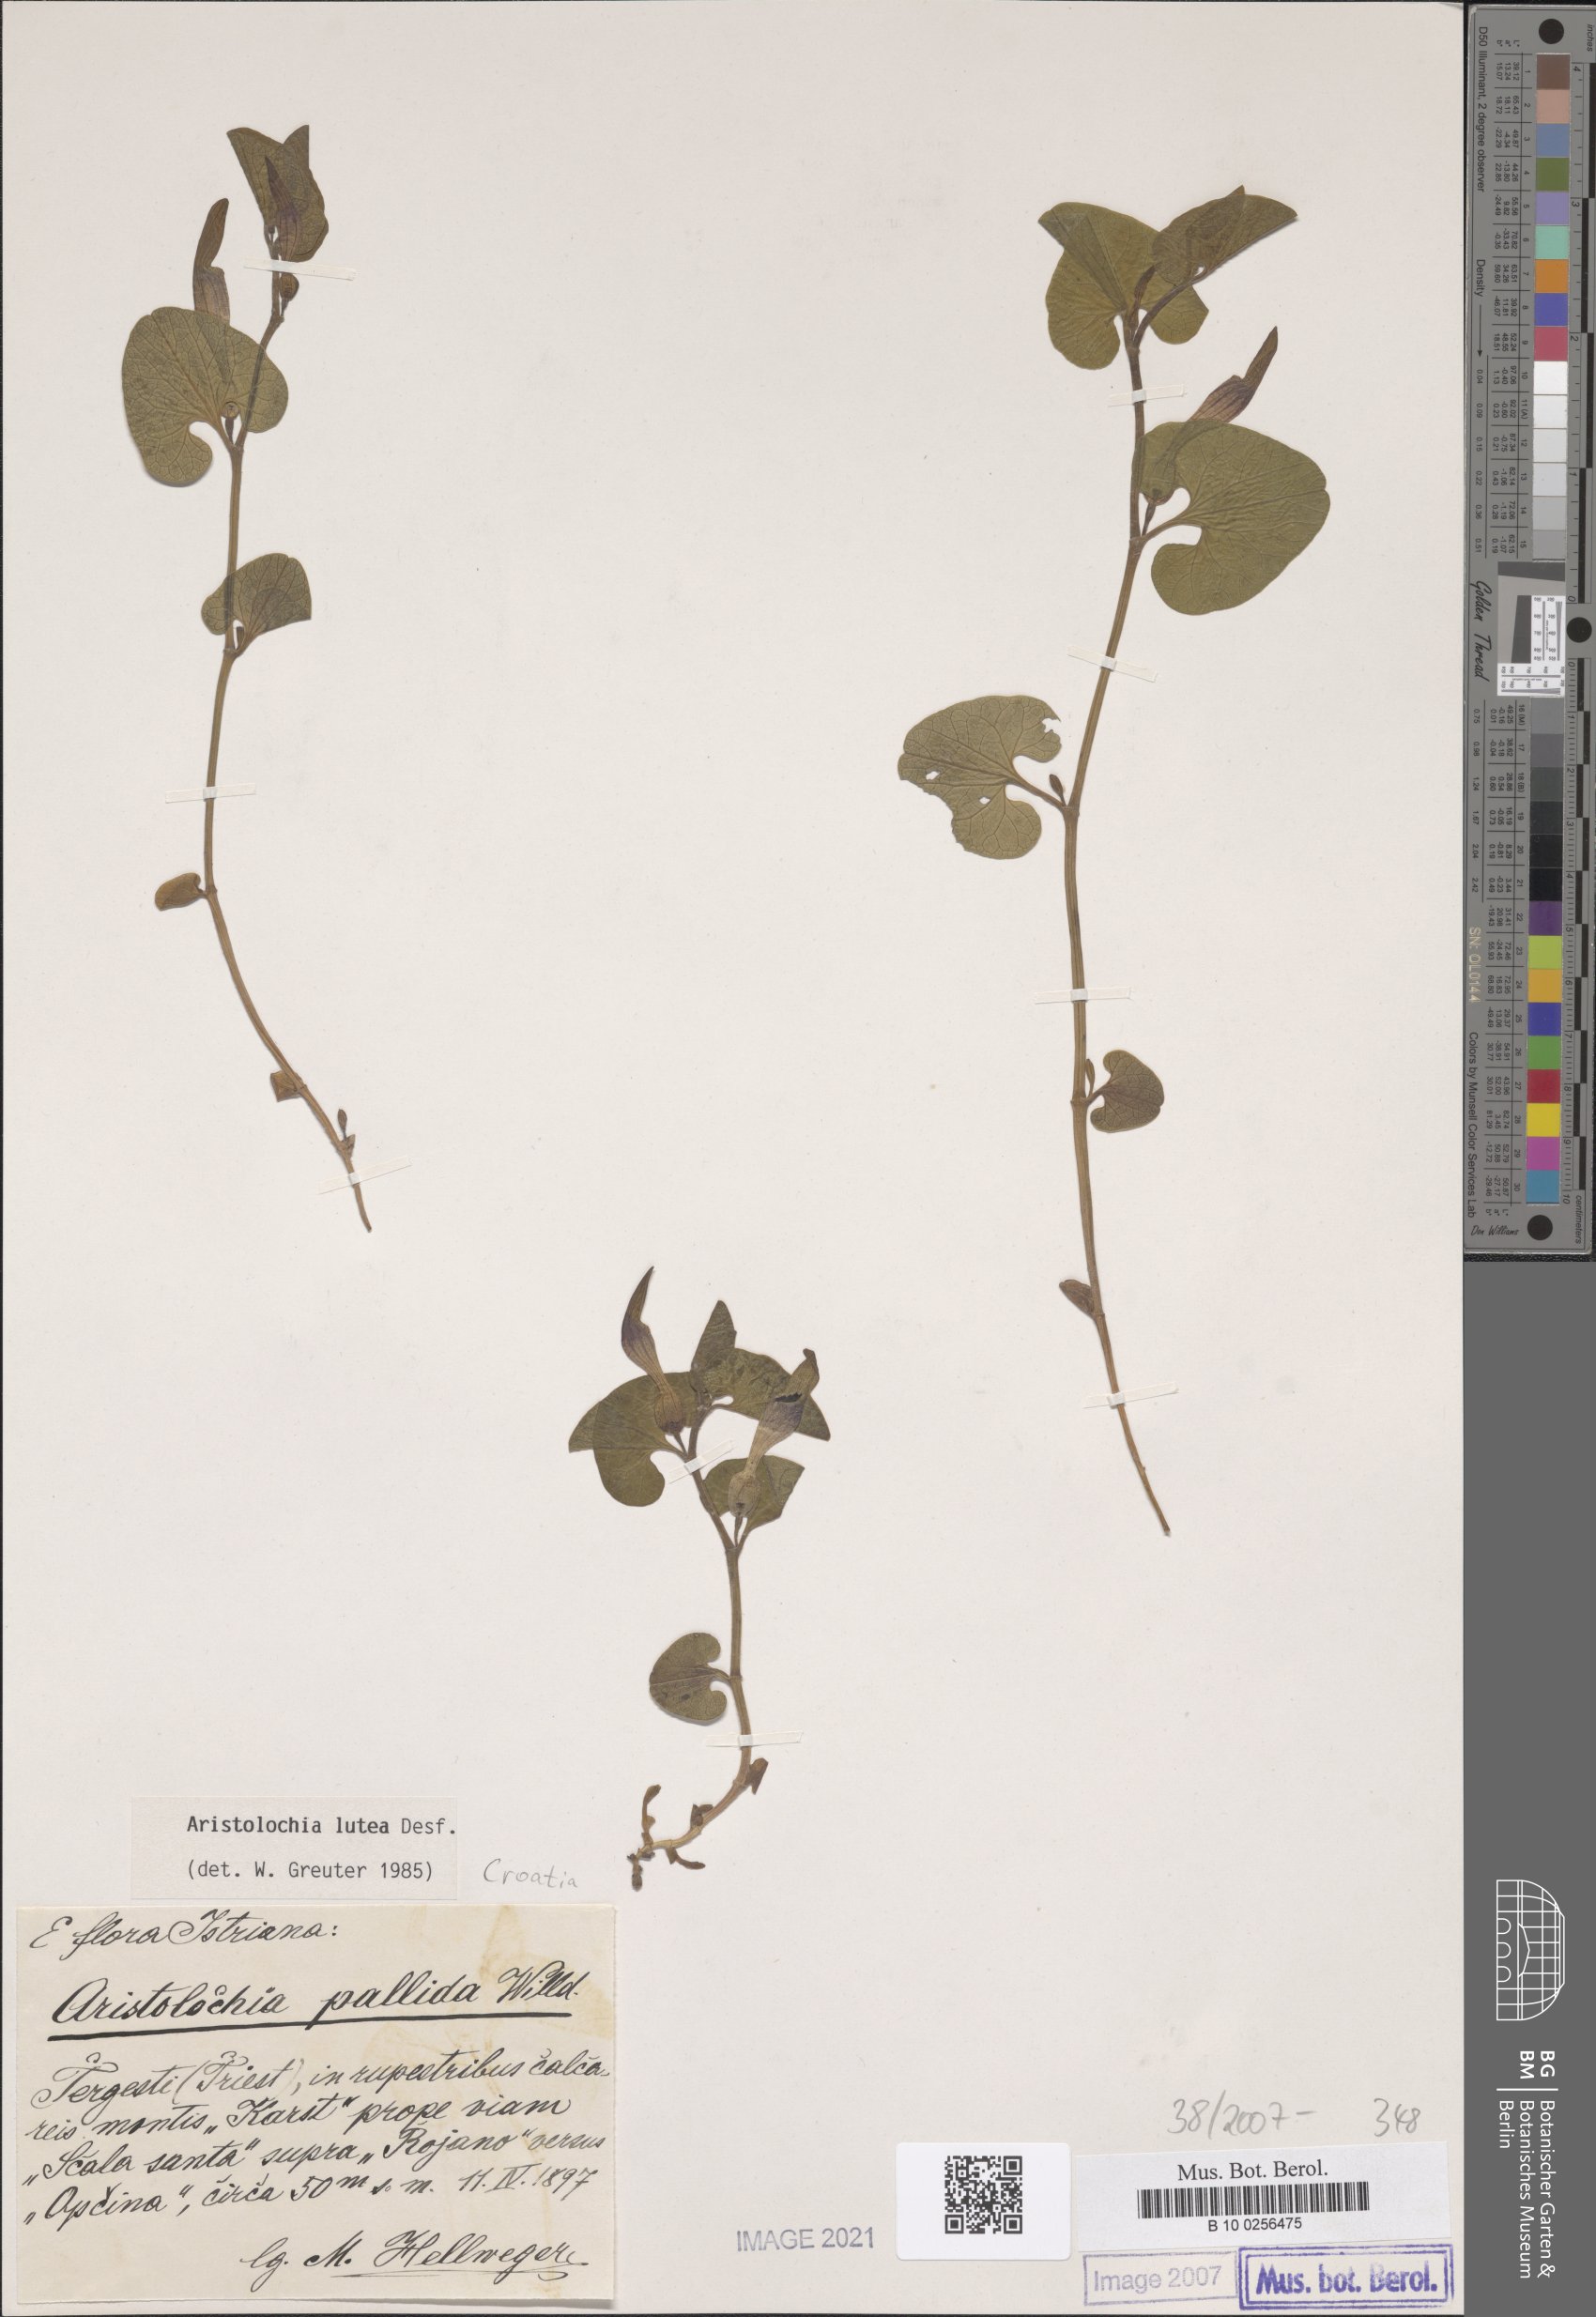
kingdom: Plantae
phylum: Tracheophyta
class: Magnoliopsida
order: Piperales
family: Aristolochiaceae
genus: Aristolochia
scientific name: Aristolochia lutea
